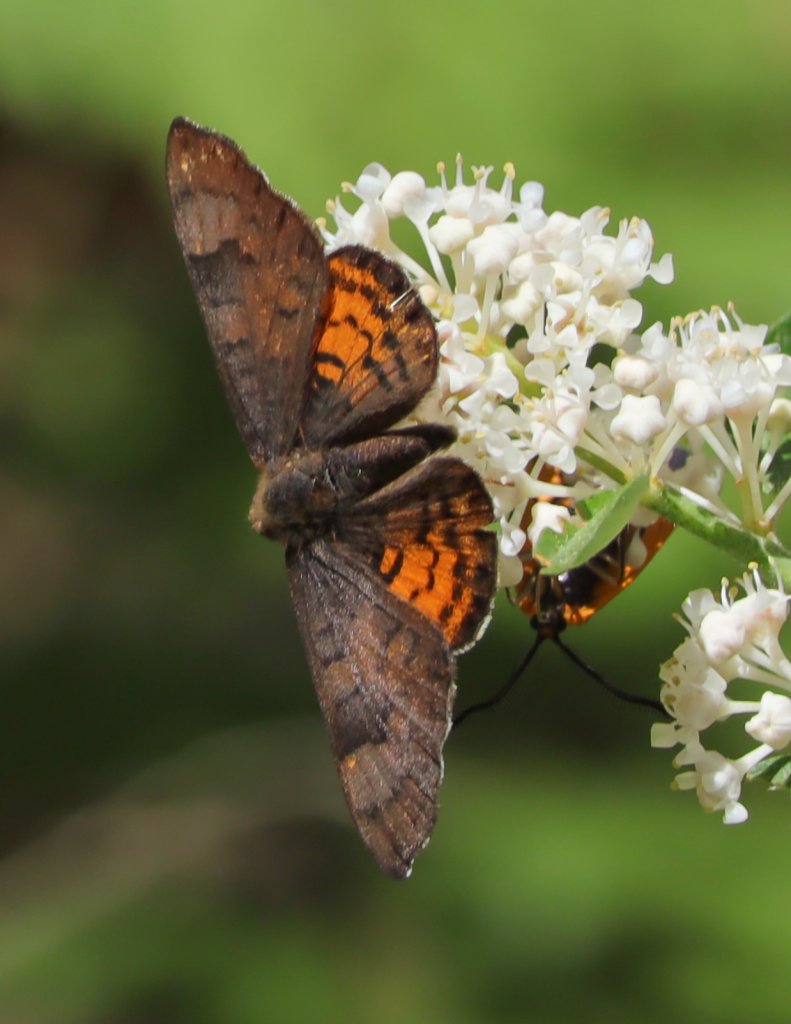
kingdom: Animalia
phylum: Arthropoda
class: Insecta
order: Lepidoptera
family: Lycaenidae
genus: Emesis
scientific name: Emesis zela
